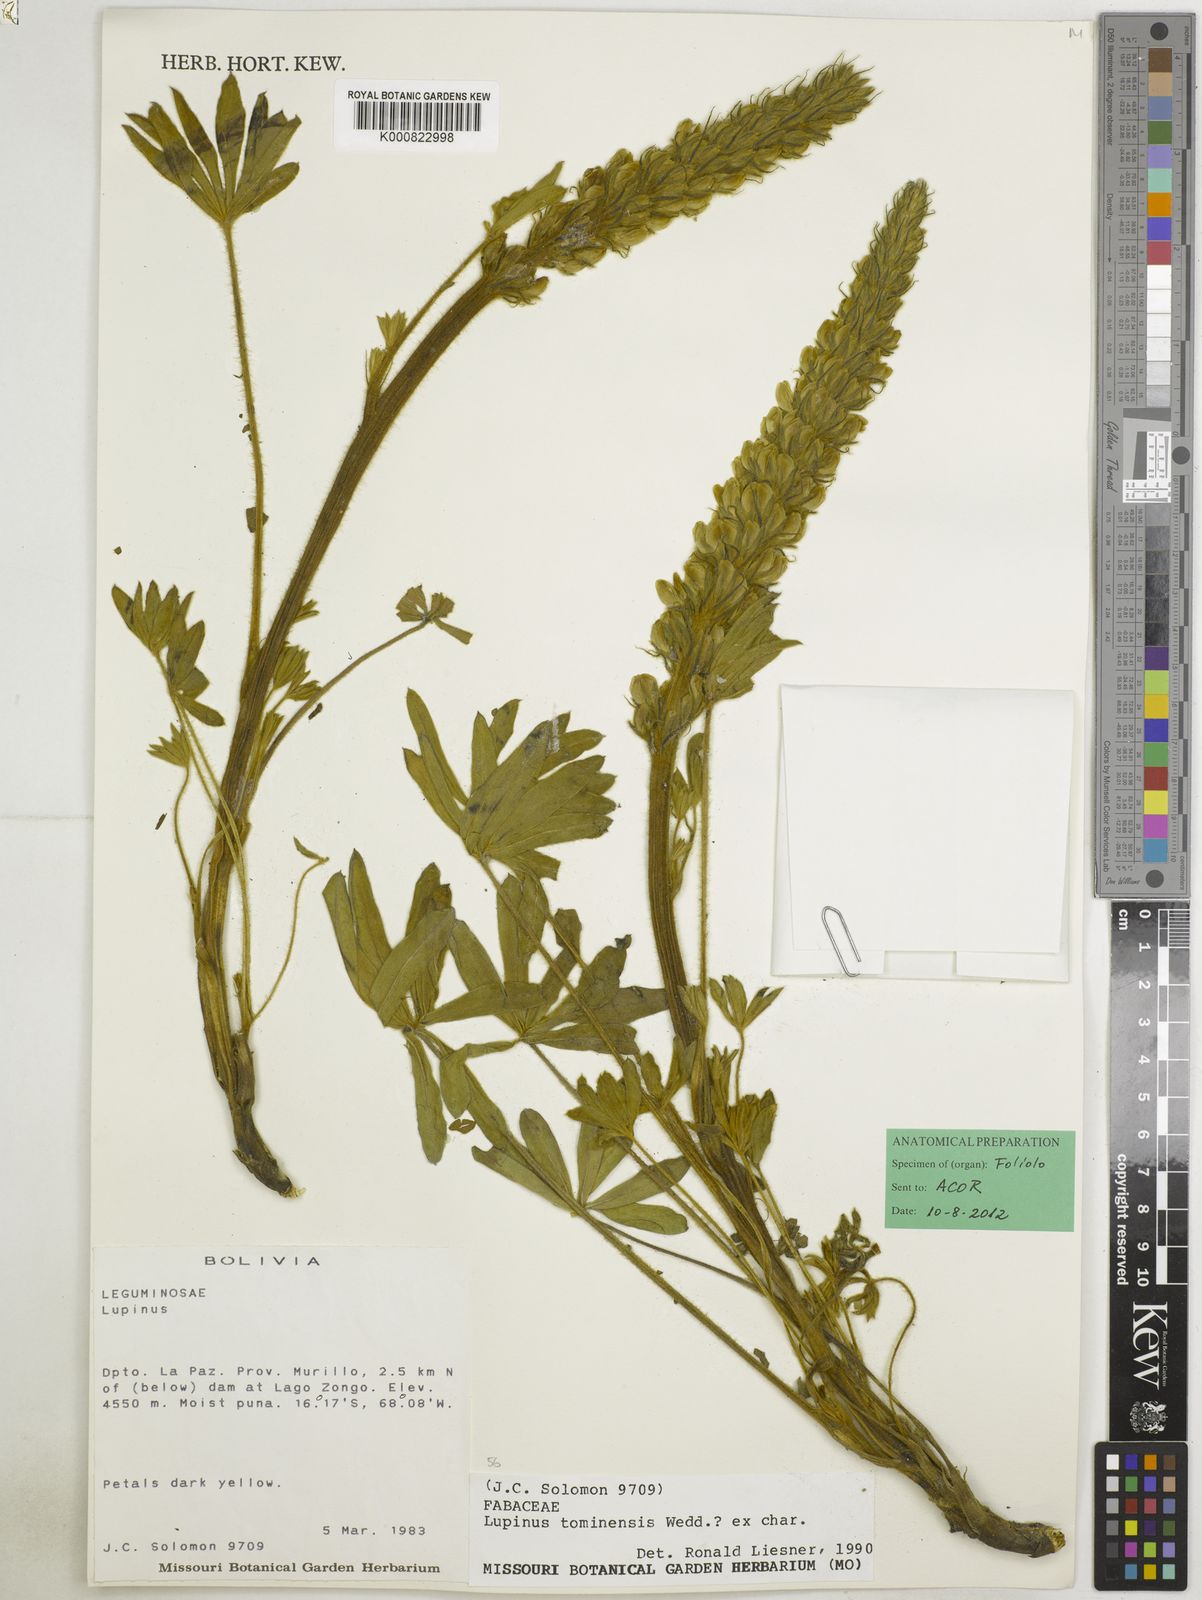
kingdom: Plantae
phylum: Tracheophyta
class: Magnoliopsida
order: Fabales
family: Fabaceae
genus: Lupinus
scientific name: Lupinus
